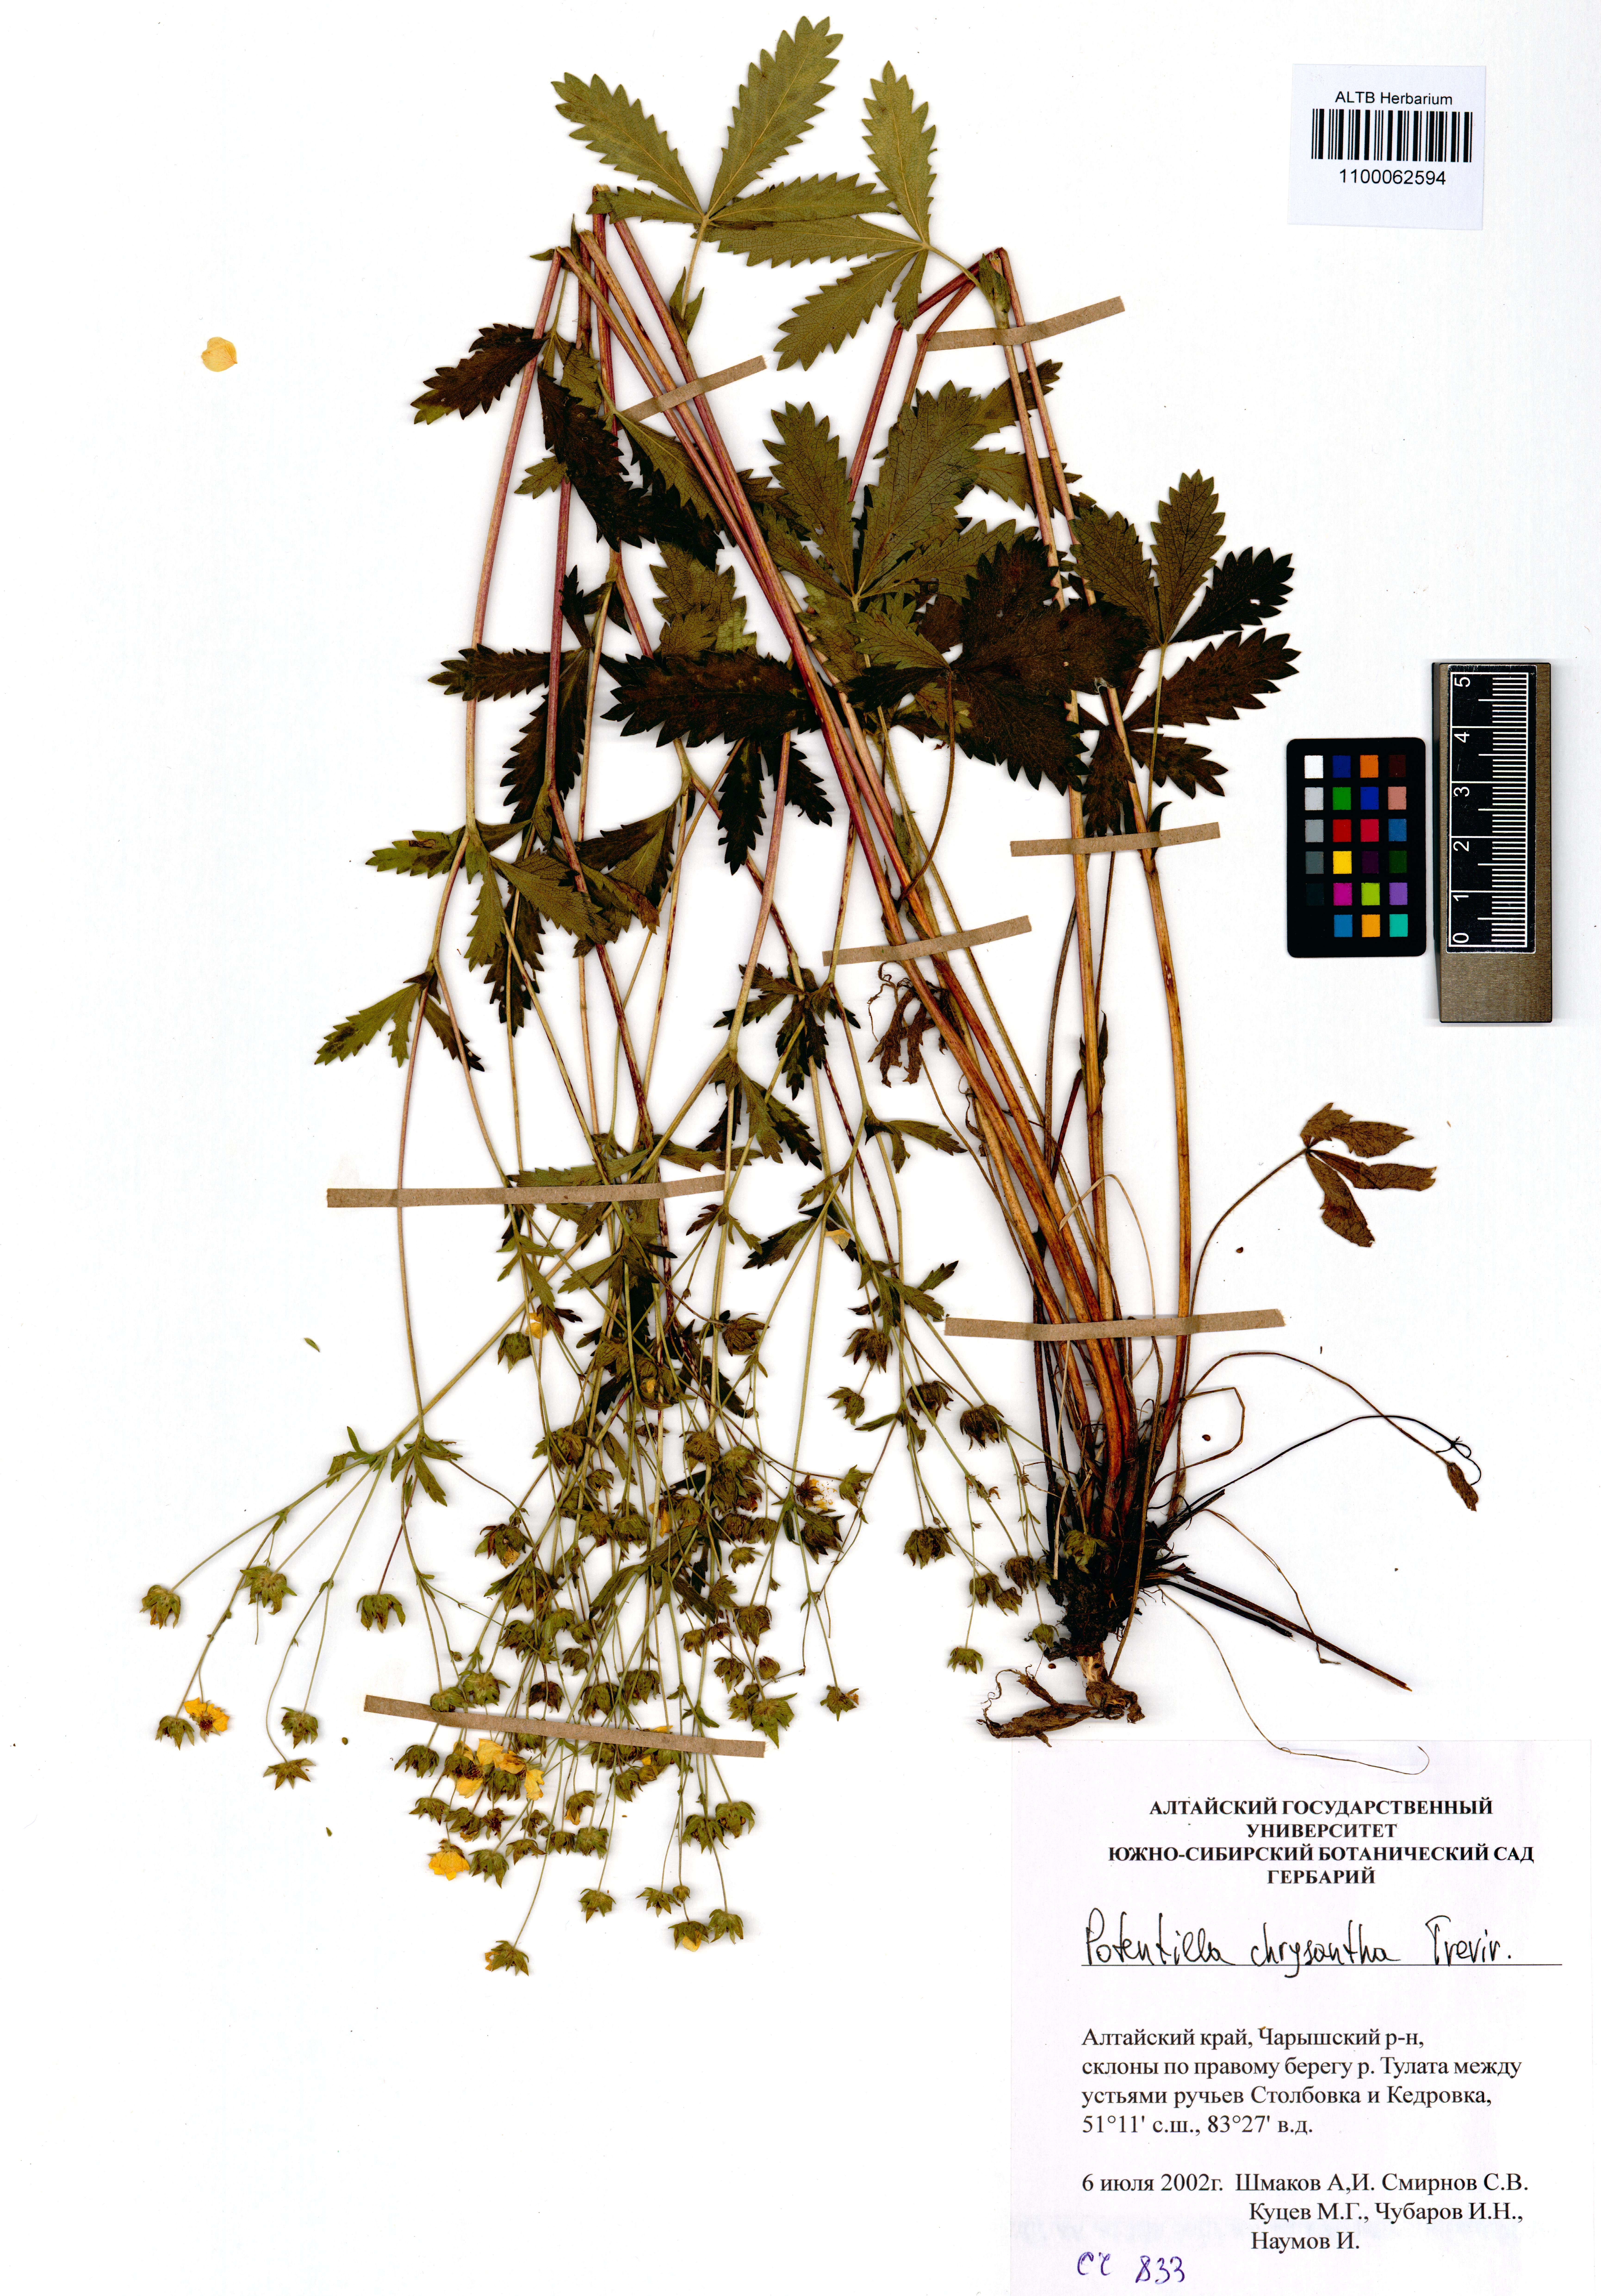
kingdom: Plantae
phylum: Tracheophyta
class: Magnoliopsida
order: Rosales
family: Rosaceae
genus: Potentilla
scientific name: Potentilla chrysantha
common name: Thuringian cinquefoil
